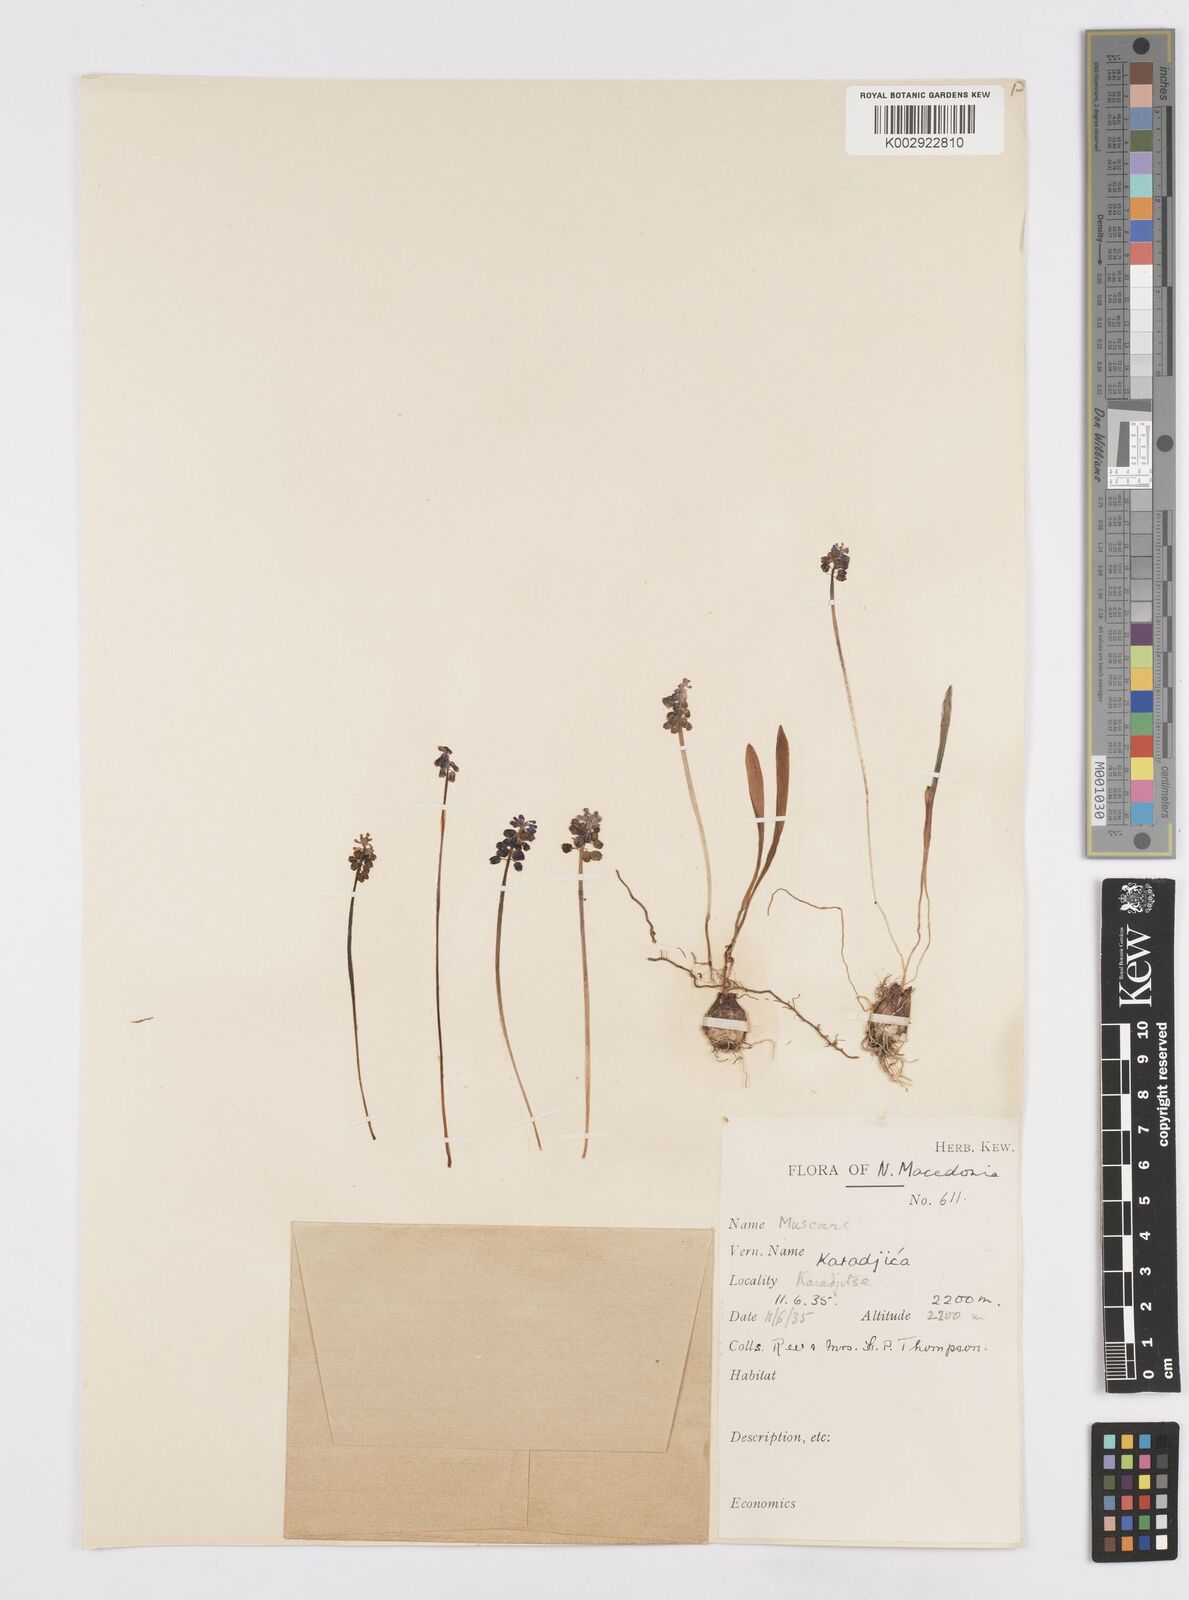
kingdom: Plantae
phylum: Tracheophyta
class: Liliopsida
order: Asparagales
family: Asparagaceae
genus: Muscari
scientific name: Muscari
